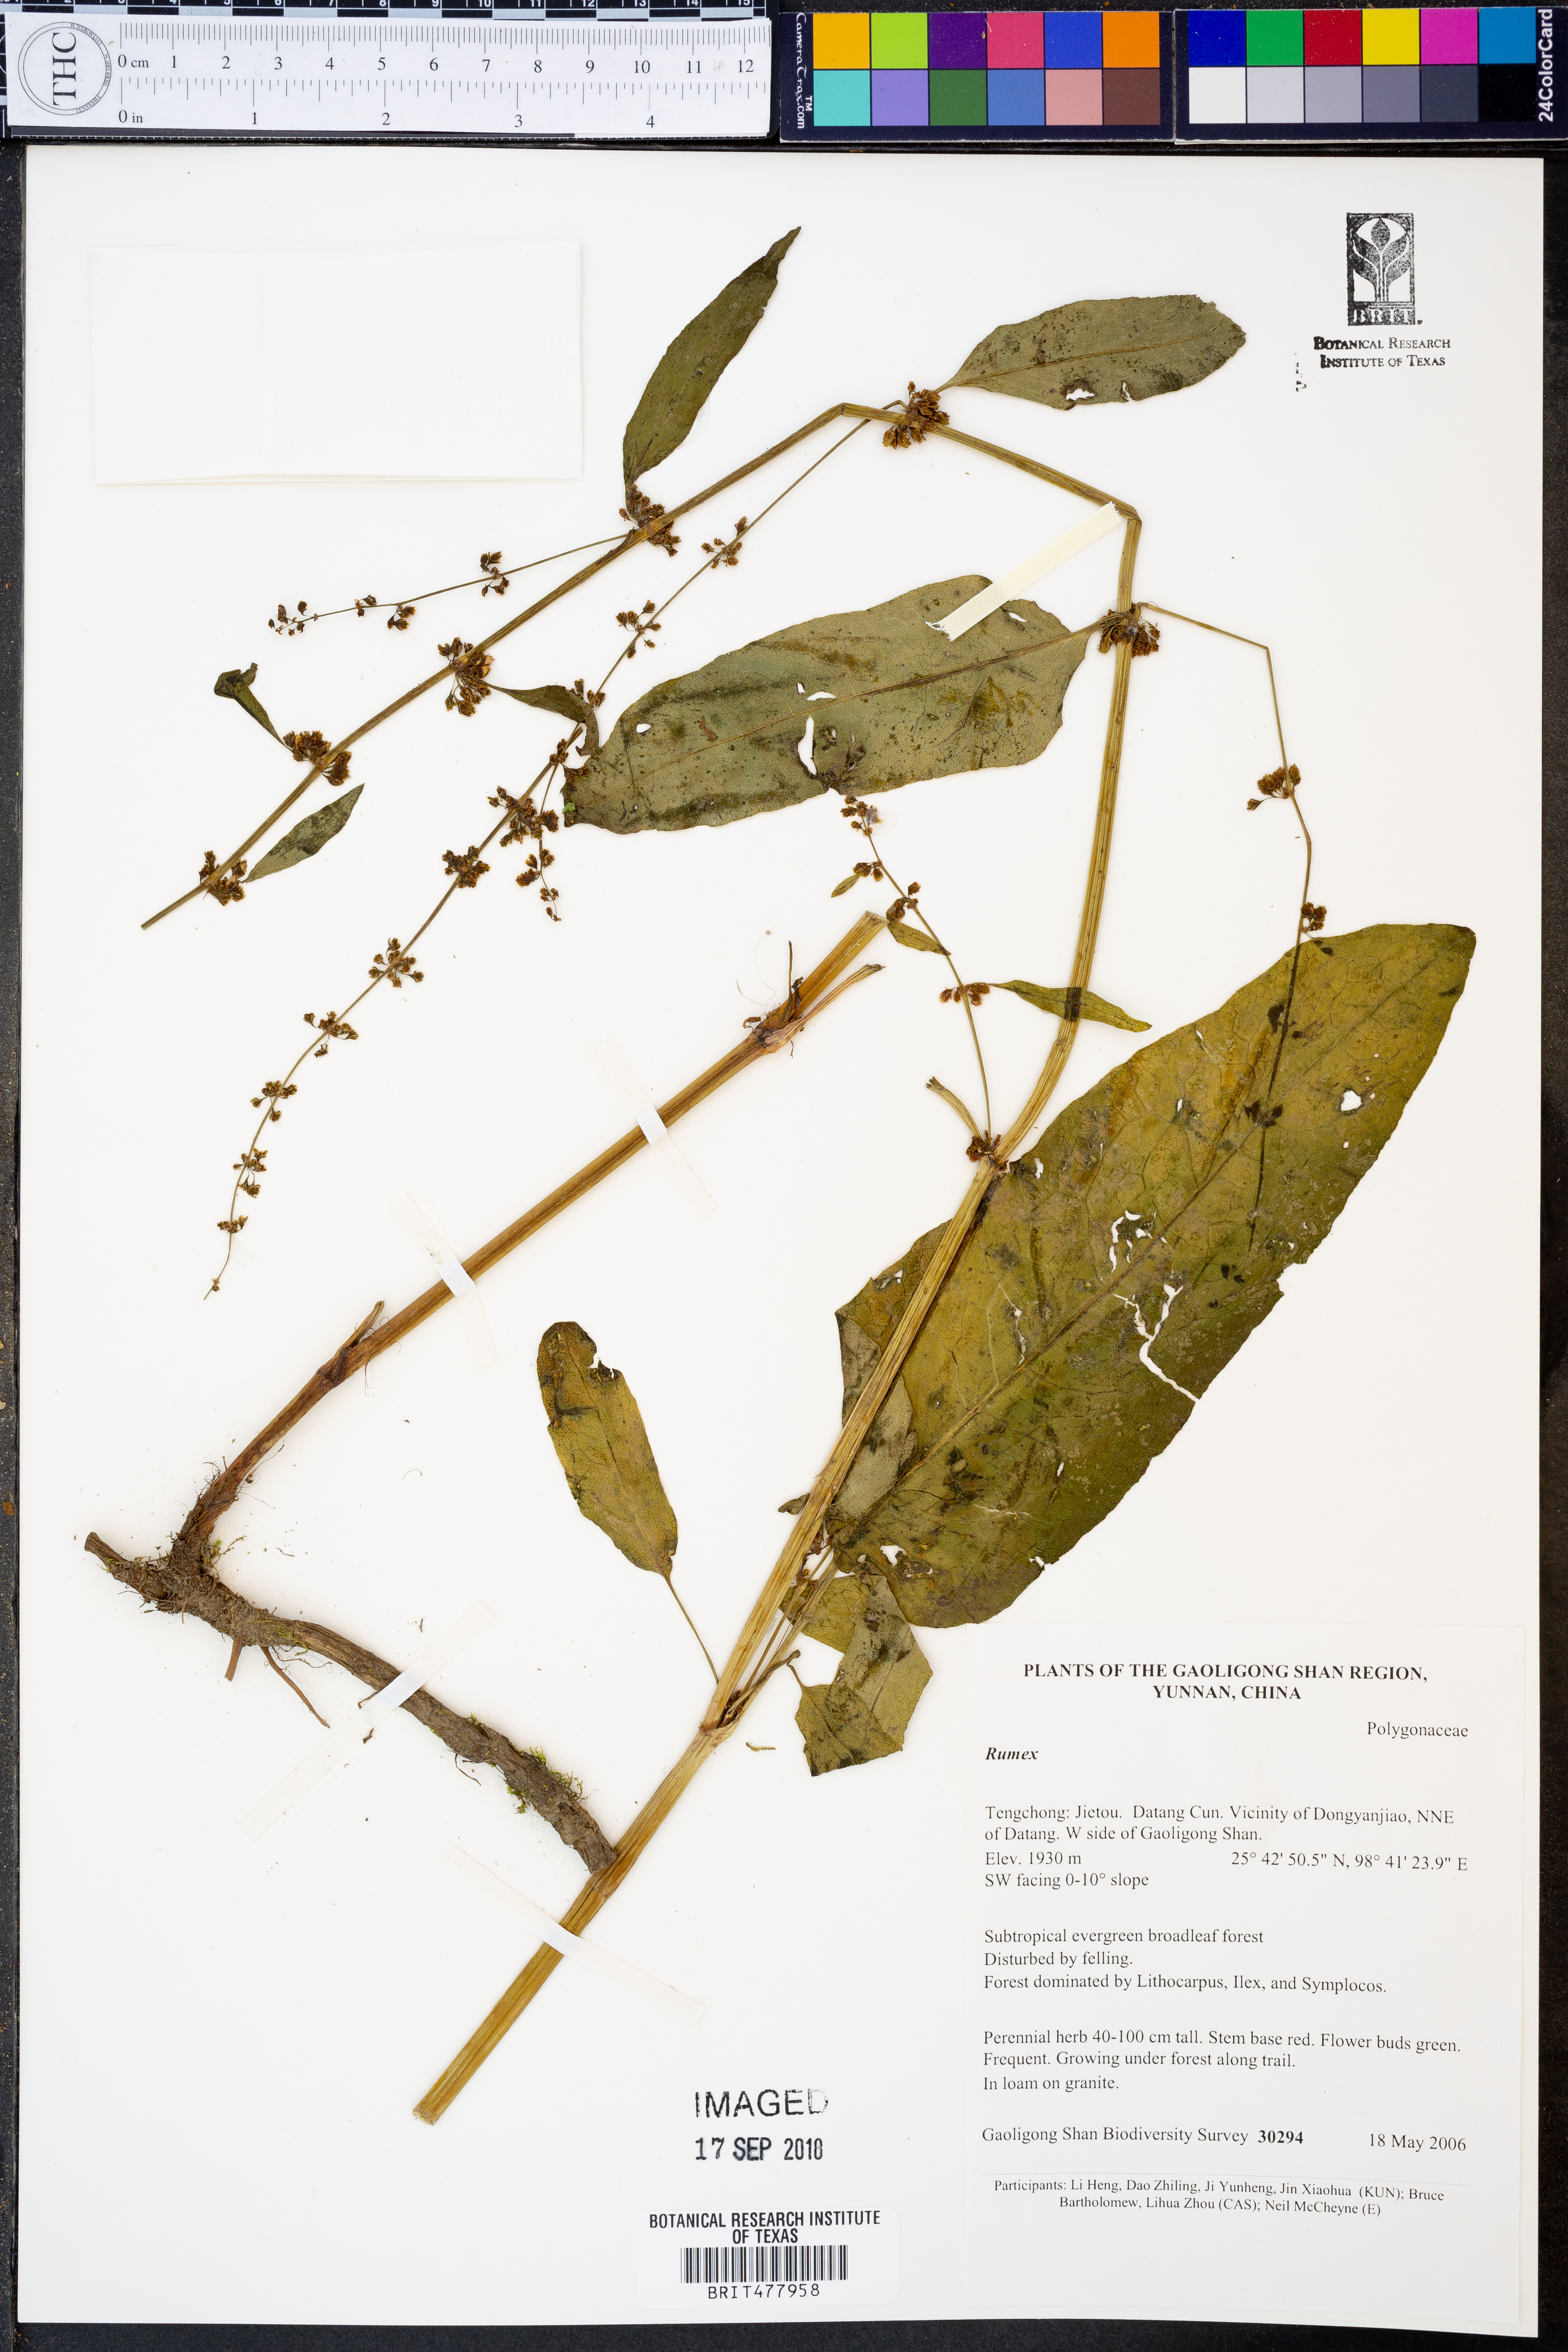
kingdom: Plantae
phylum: Tracheophyta
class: Magnoliopsida
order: Caryophyllales
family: Polygonaceae
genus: Rumex
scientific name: Rumex
